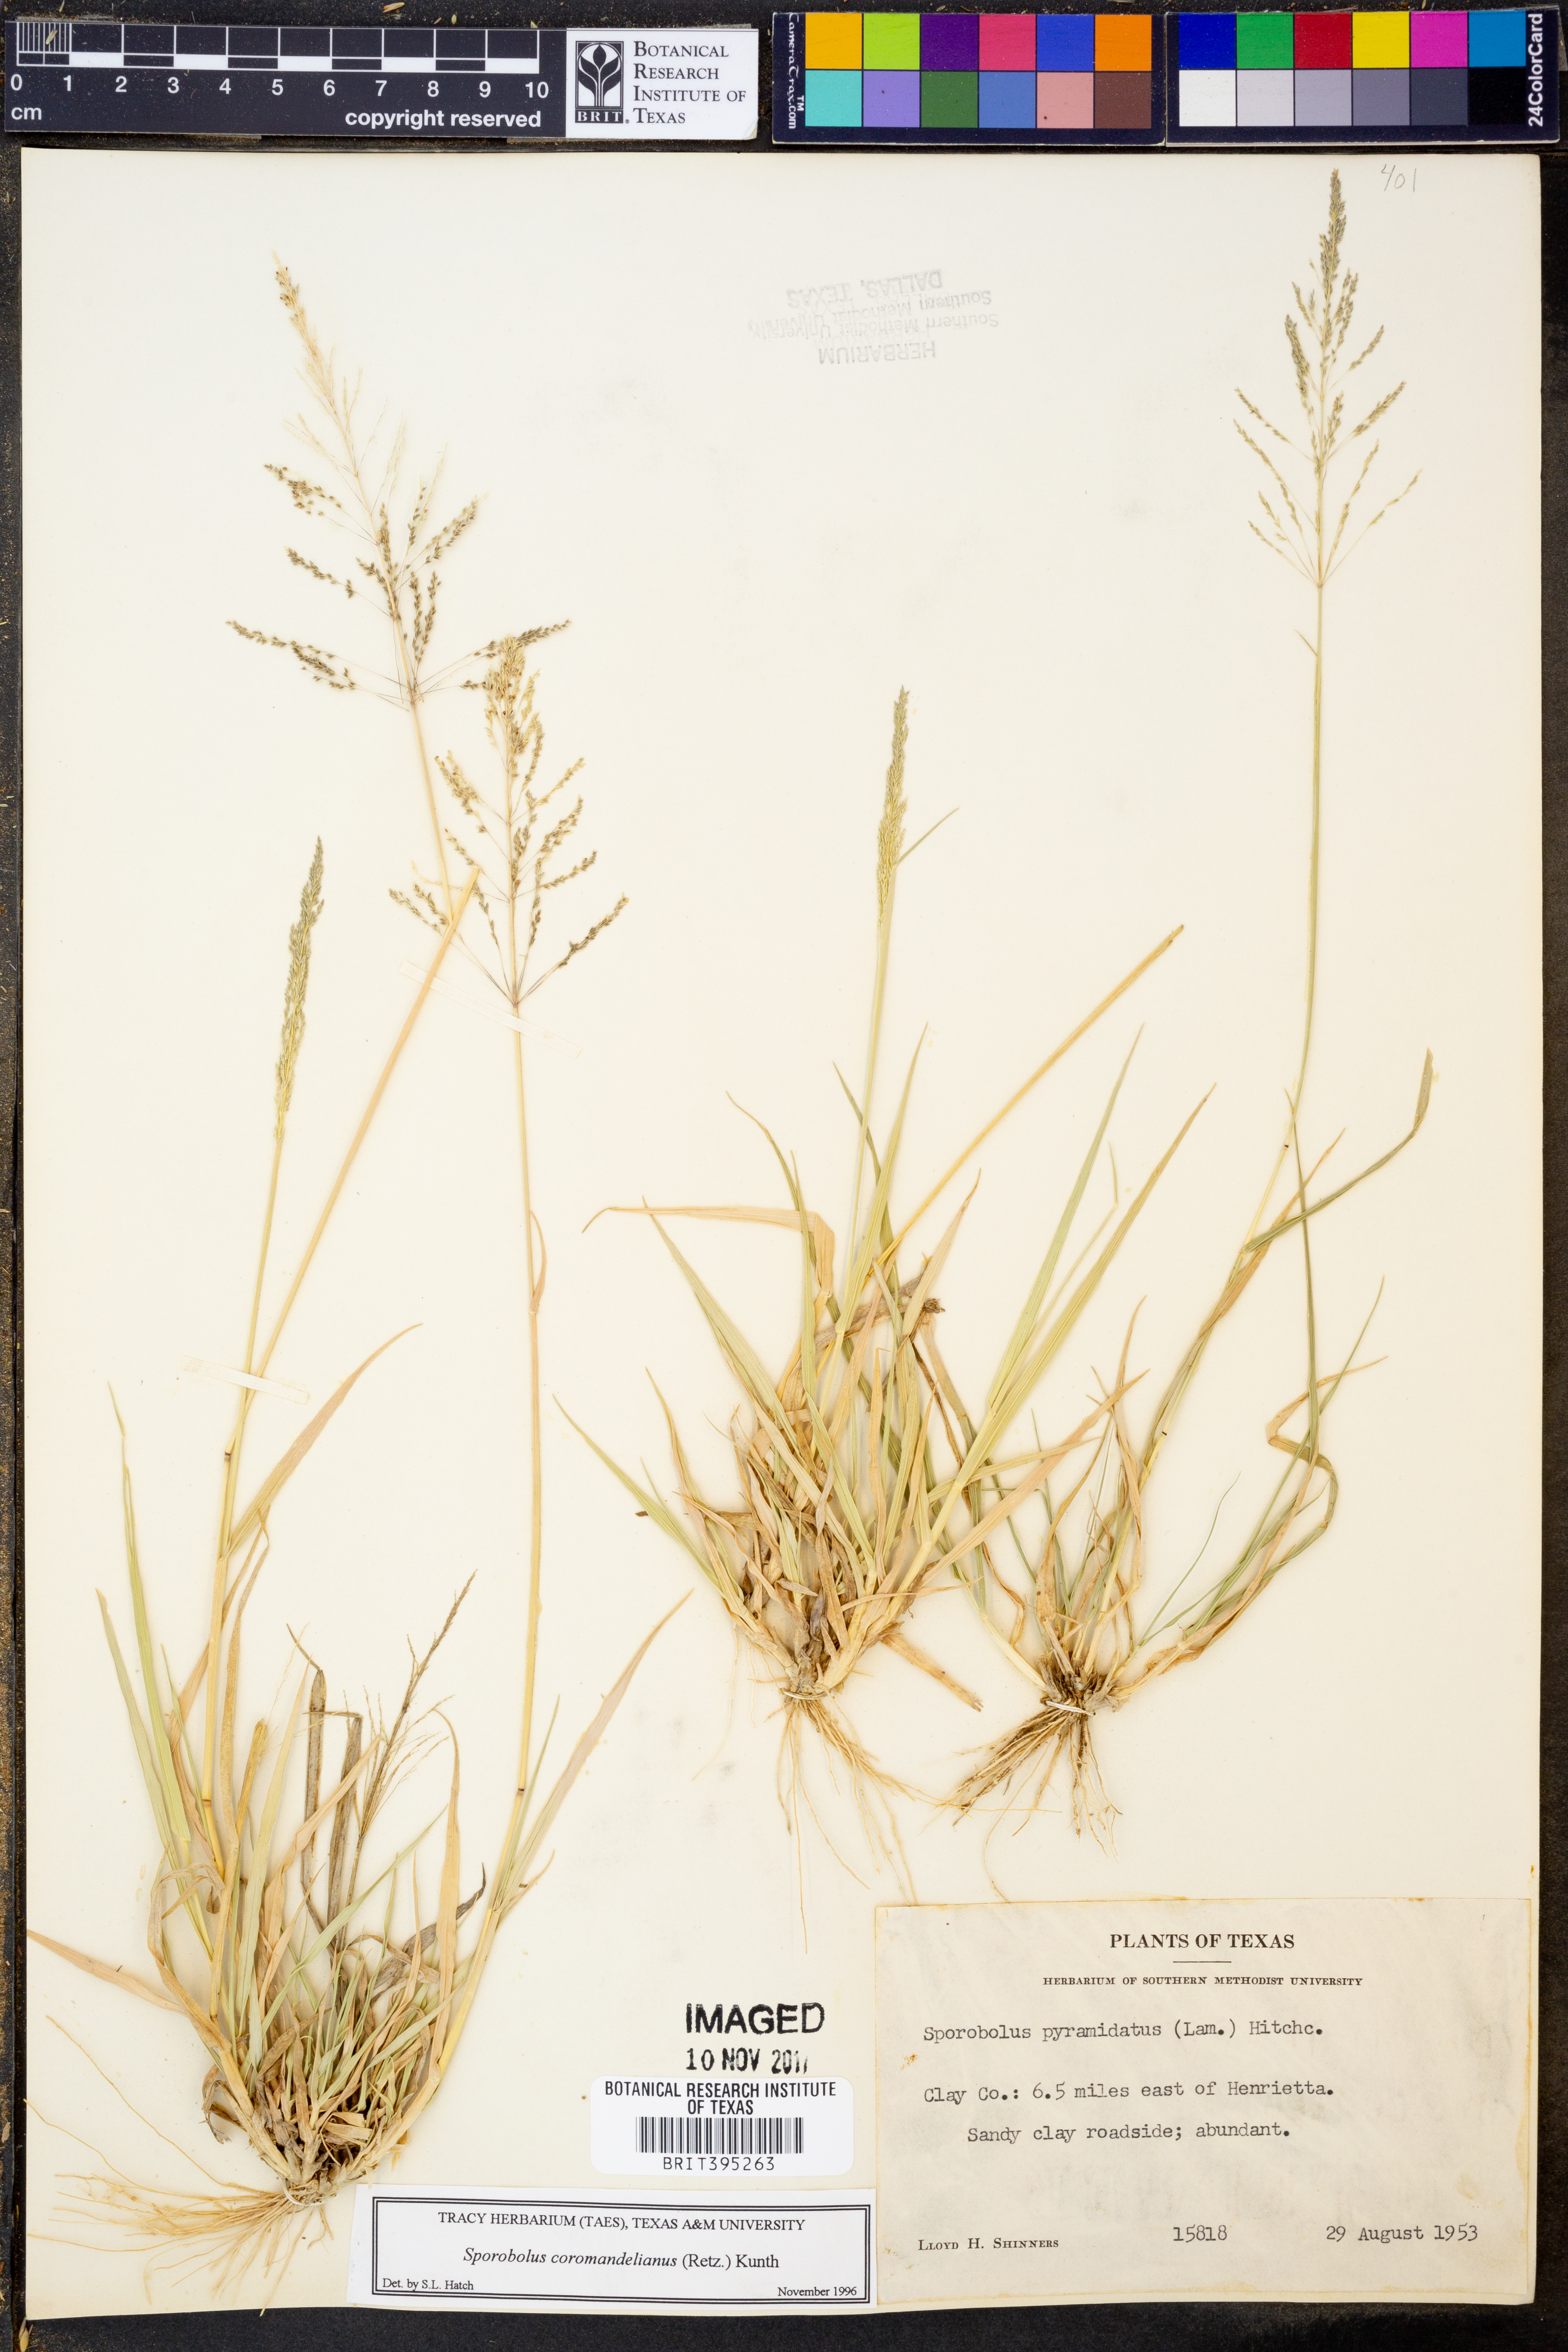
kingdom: Plantae
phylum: Tracheophyta
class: Liliopsida
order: Poales
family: Poaceae
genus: Sporobolus
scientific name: Sporobolus coromandelianus
